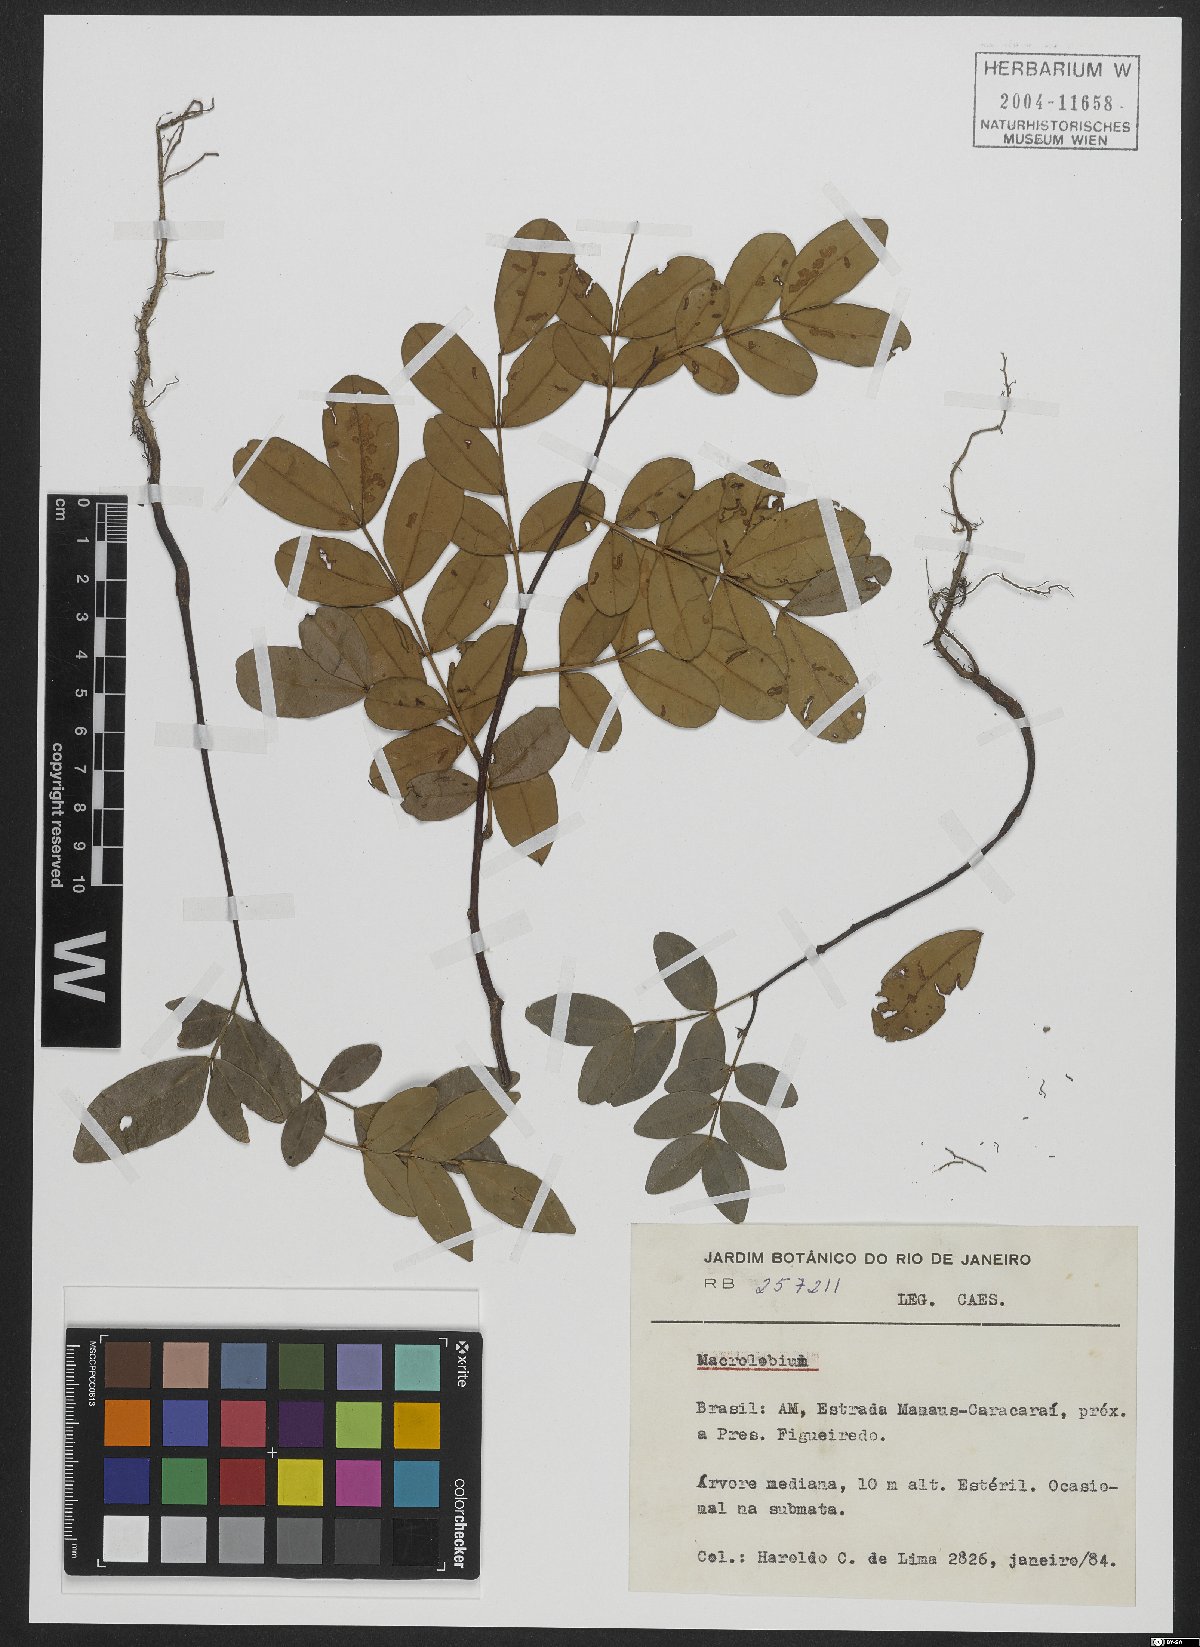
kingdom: Plantae
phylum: Tracheophyta
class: Magnoliopsida
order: Fabales
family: Fabaceae
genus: Macrolobium
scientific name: Macrolobium
